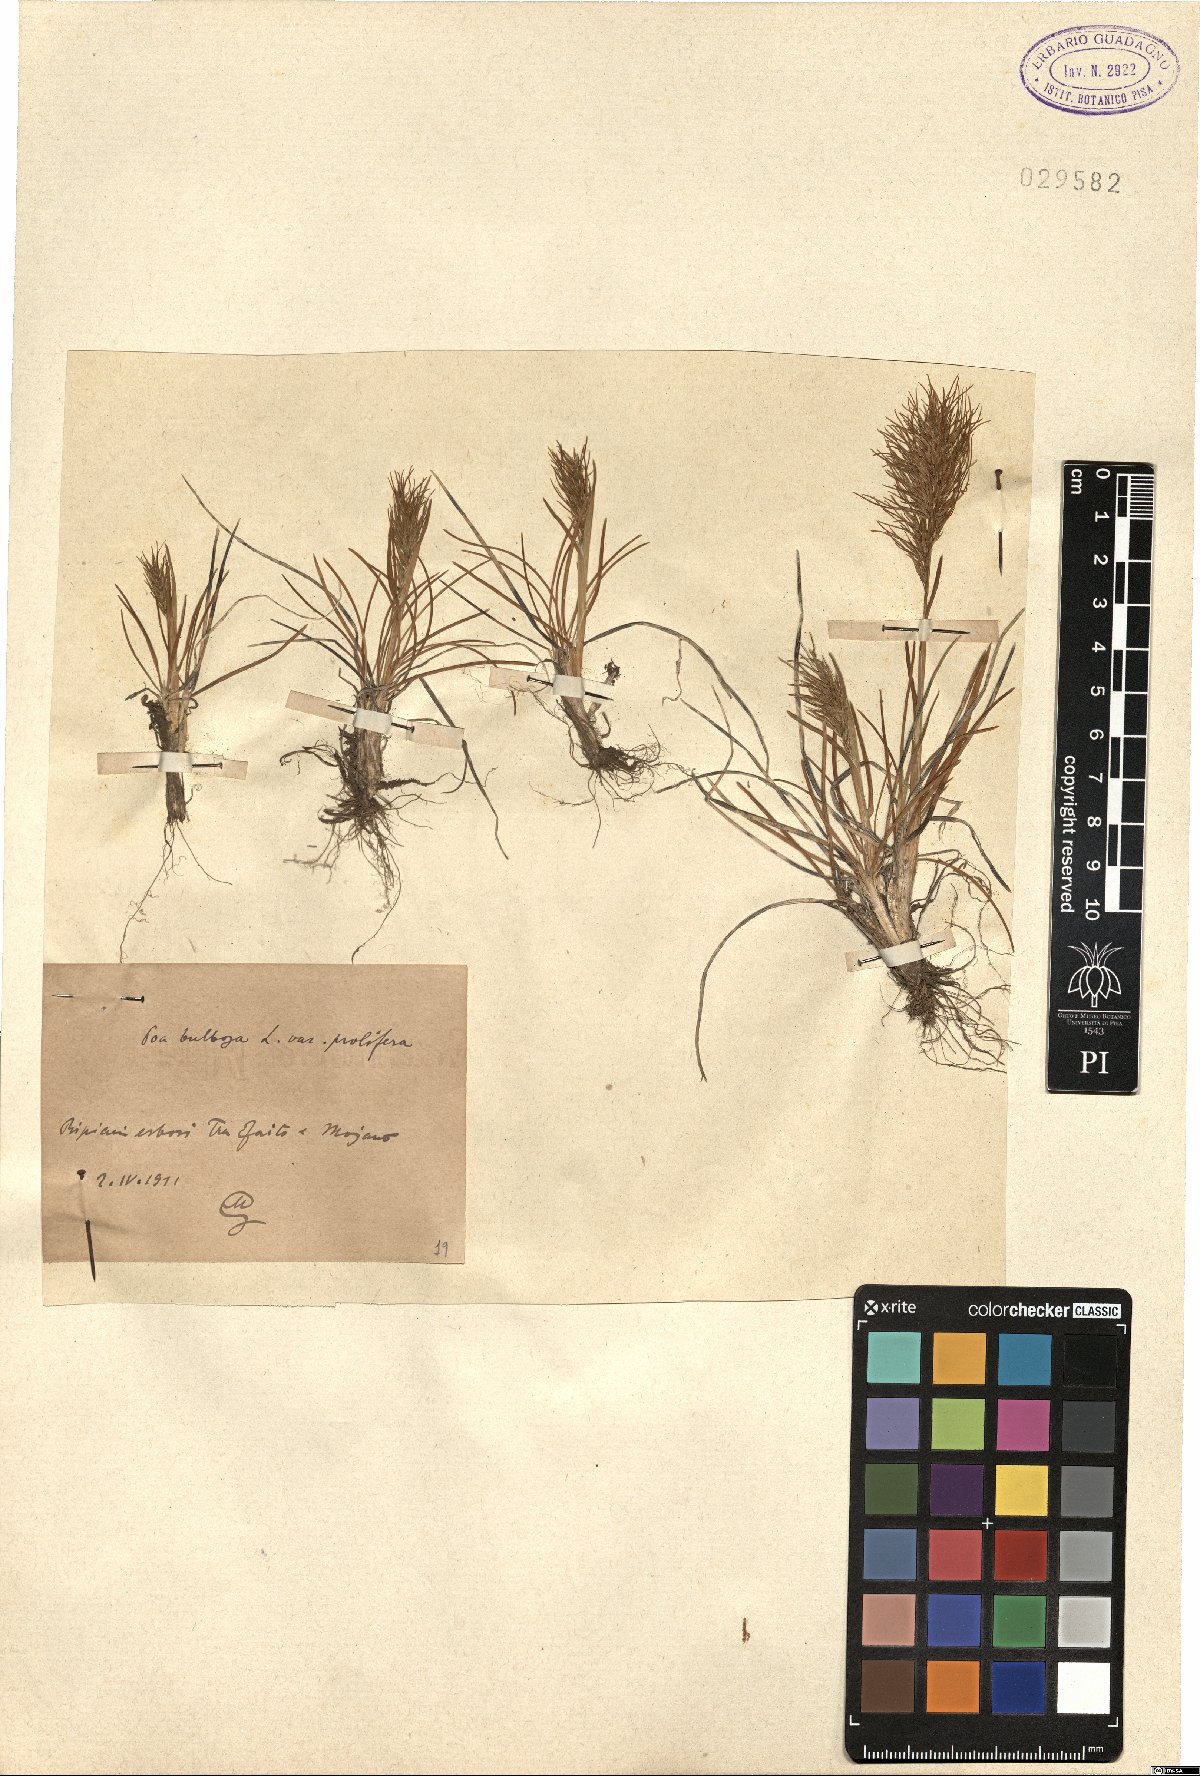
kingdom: Plantae
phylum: Tracheophyta
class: Liliopsida
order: Poales
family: Poaceae
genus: Poa
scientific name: Poa bulbosa
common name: Bulbous bluegrass
